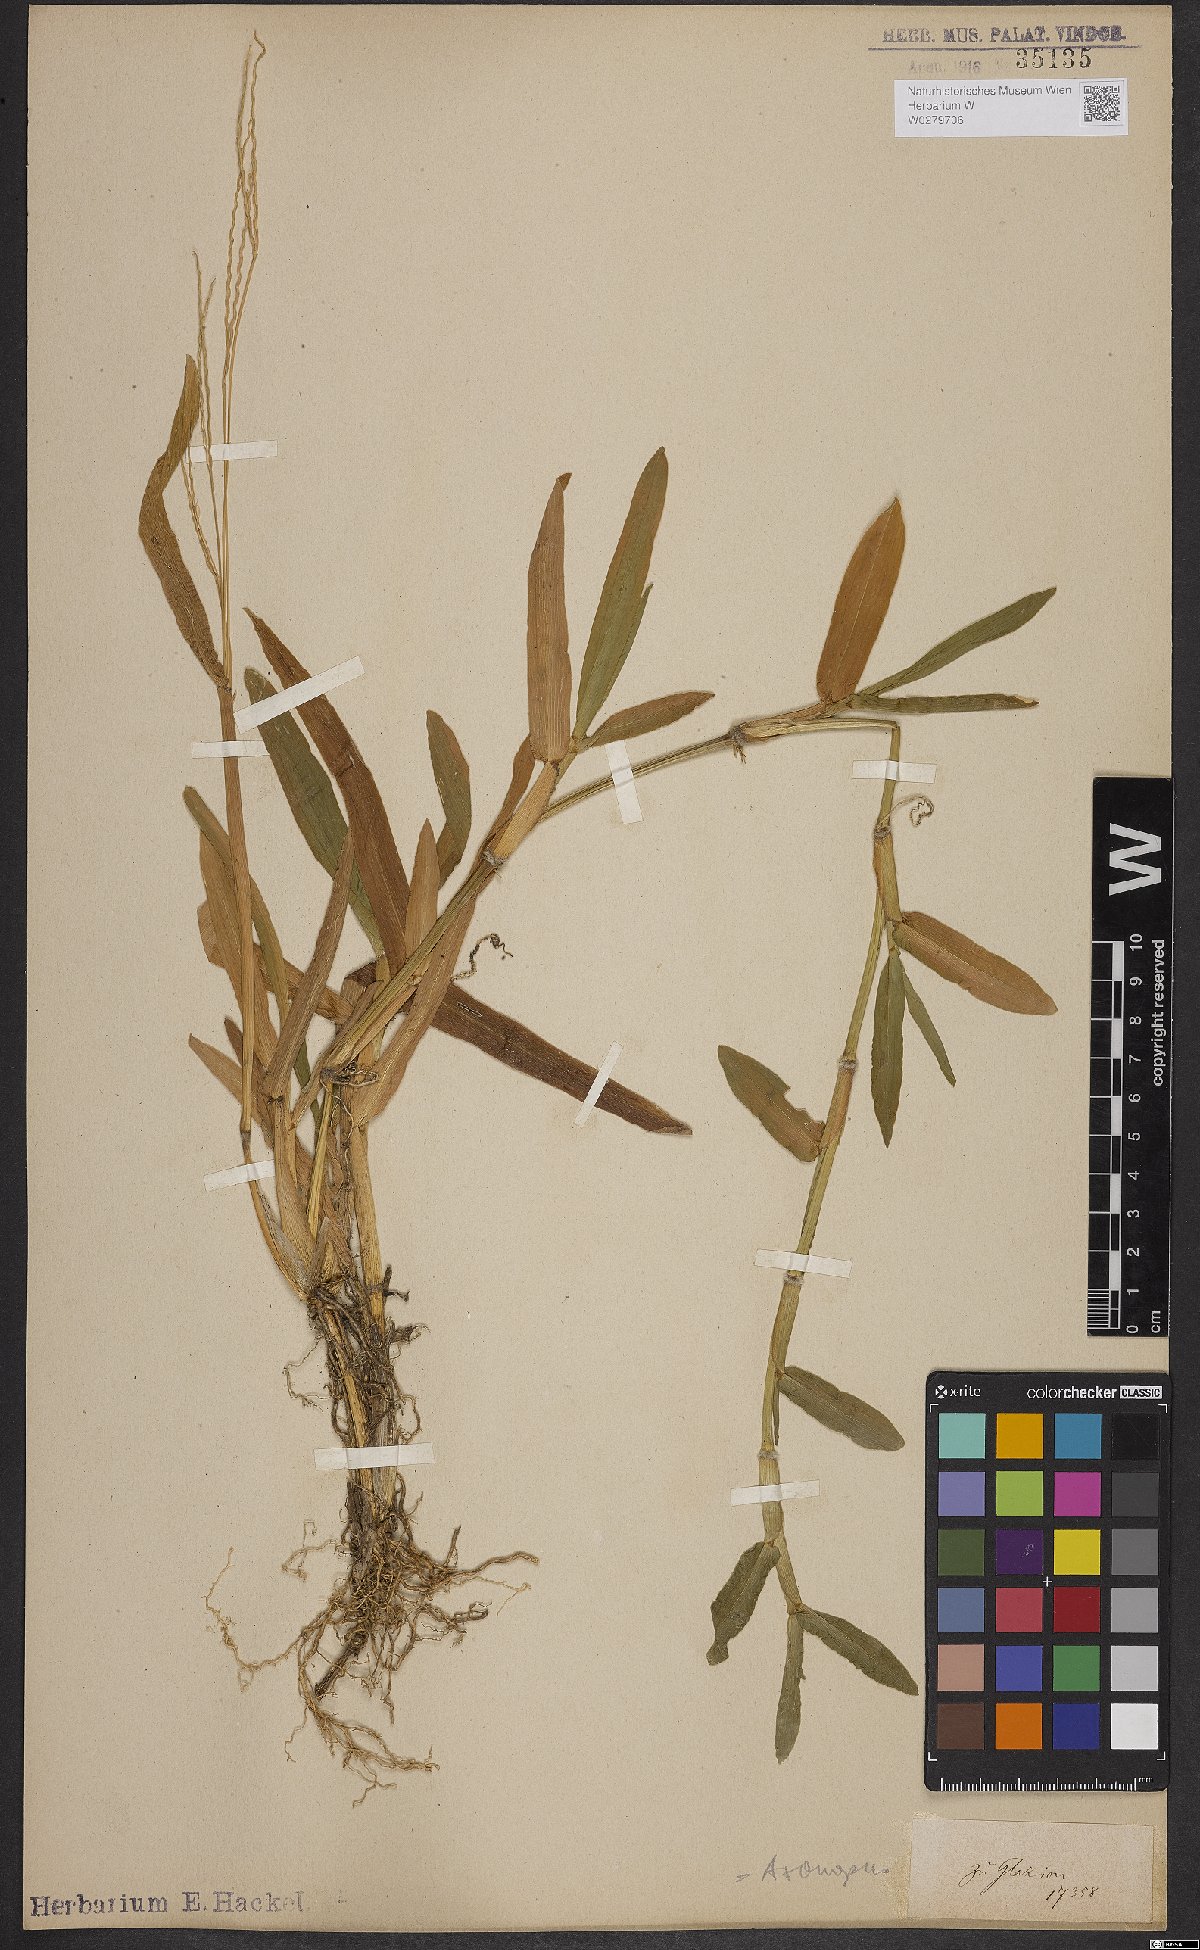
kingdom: Plantae
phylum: Tracheophyta
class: Liliopsida
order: Poales
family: Poaceae
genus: Axonopus
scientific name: Axonopus furcatus
